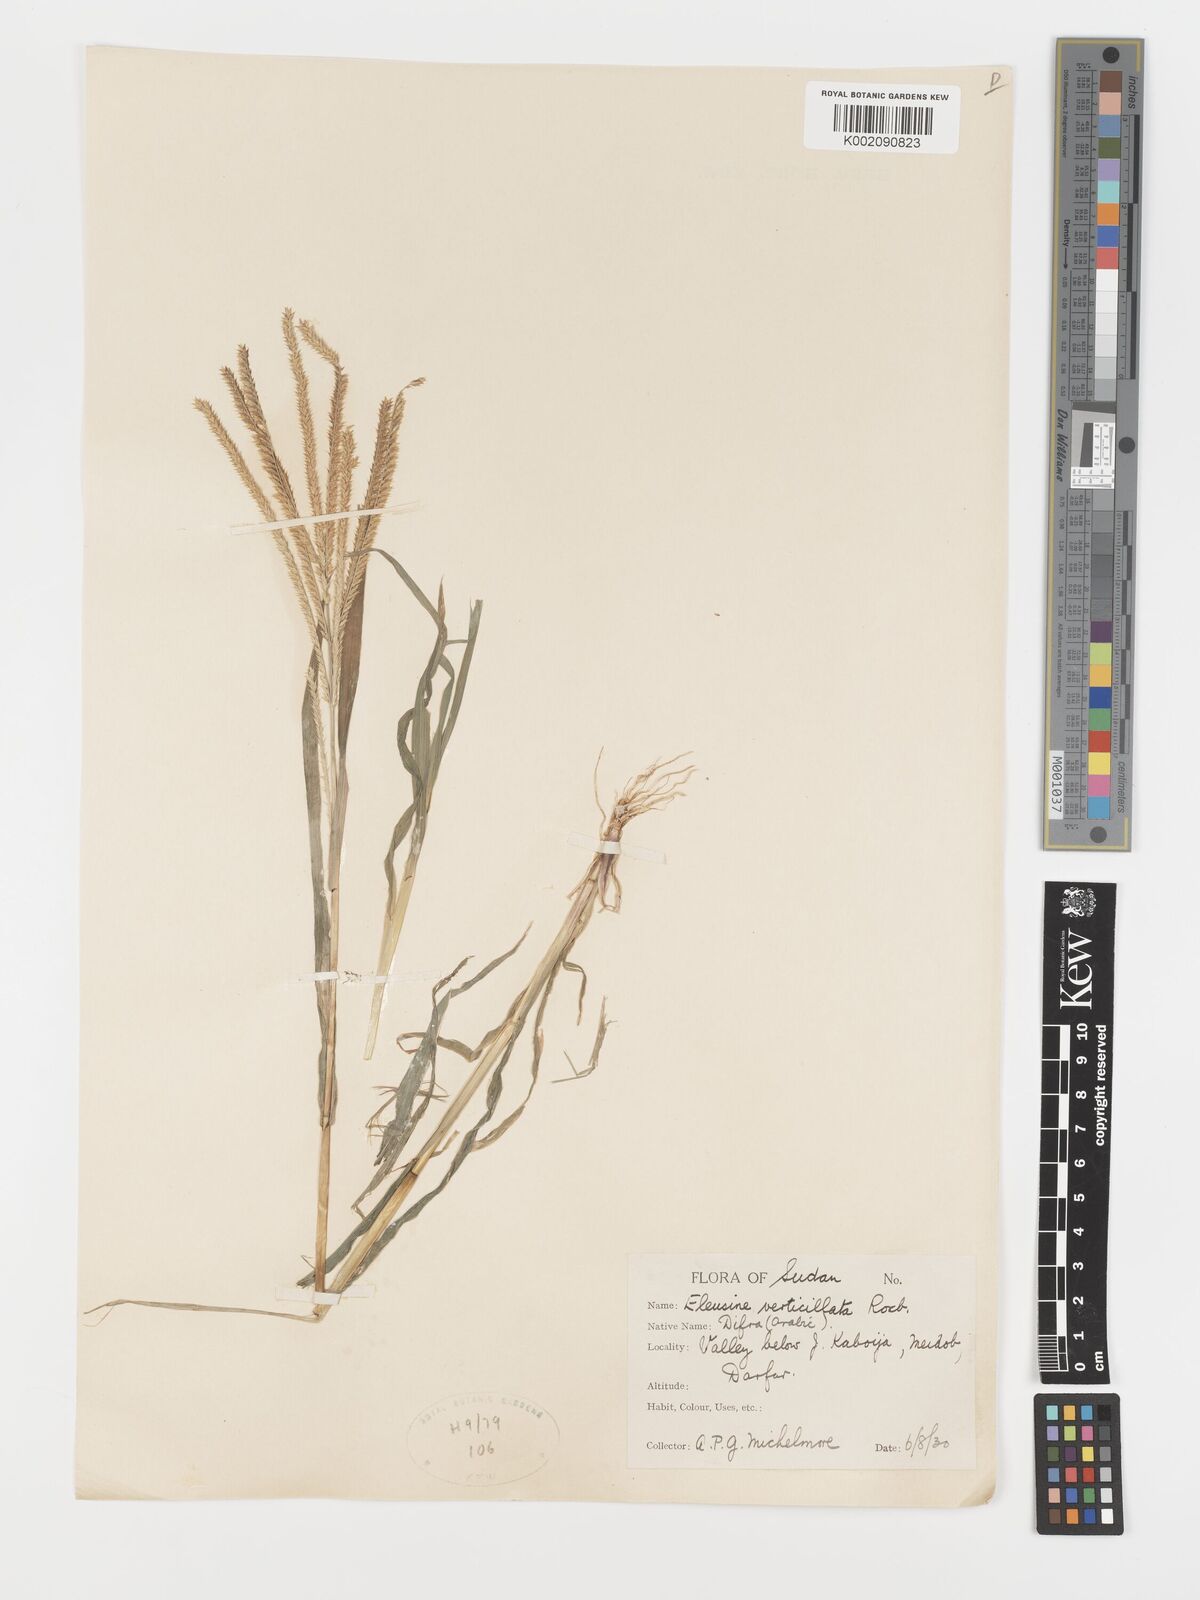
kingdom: Plantae
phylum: Tracheophyta
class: Liliopsida
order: Poales
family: Poaceae
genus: Acrachne
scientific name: Acrachne racemosa
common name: Goosegrass
